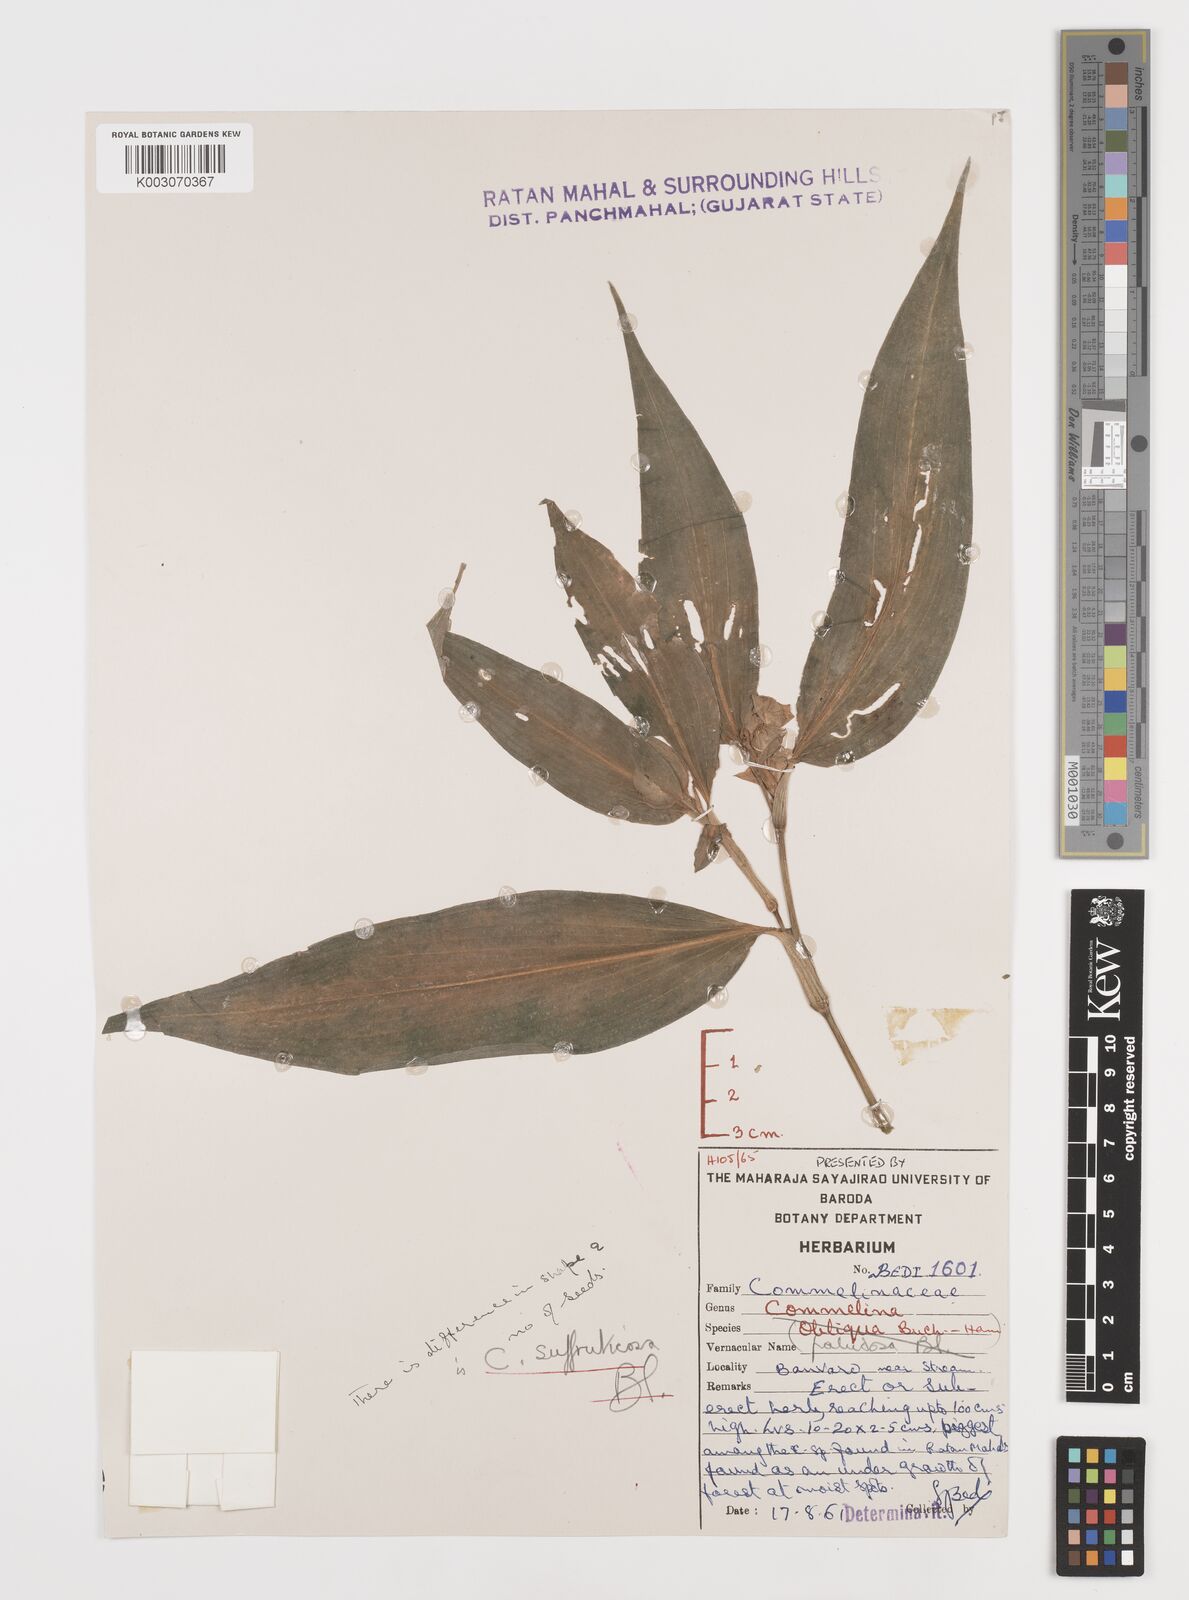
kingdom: Plantae
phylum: Tracheophyta
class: Liliopsida
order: Commelinales
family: Commelinaceae
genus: Commelina
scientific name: Commelina suffruticosa
